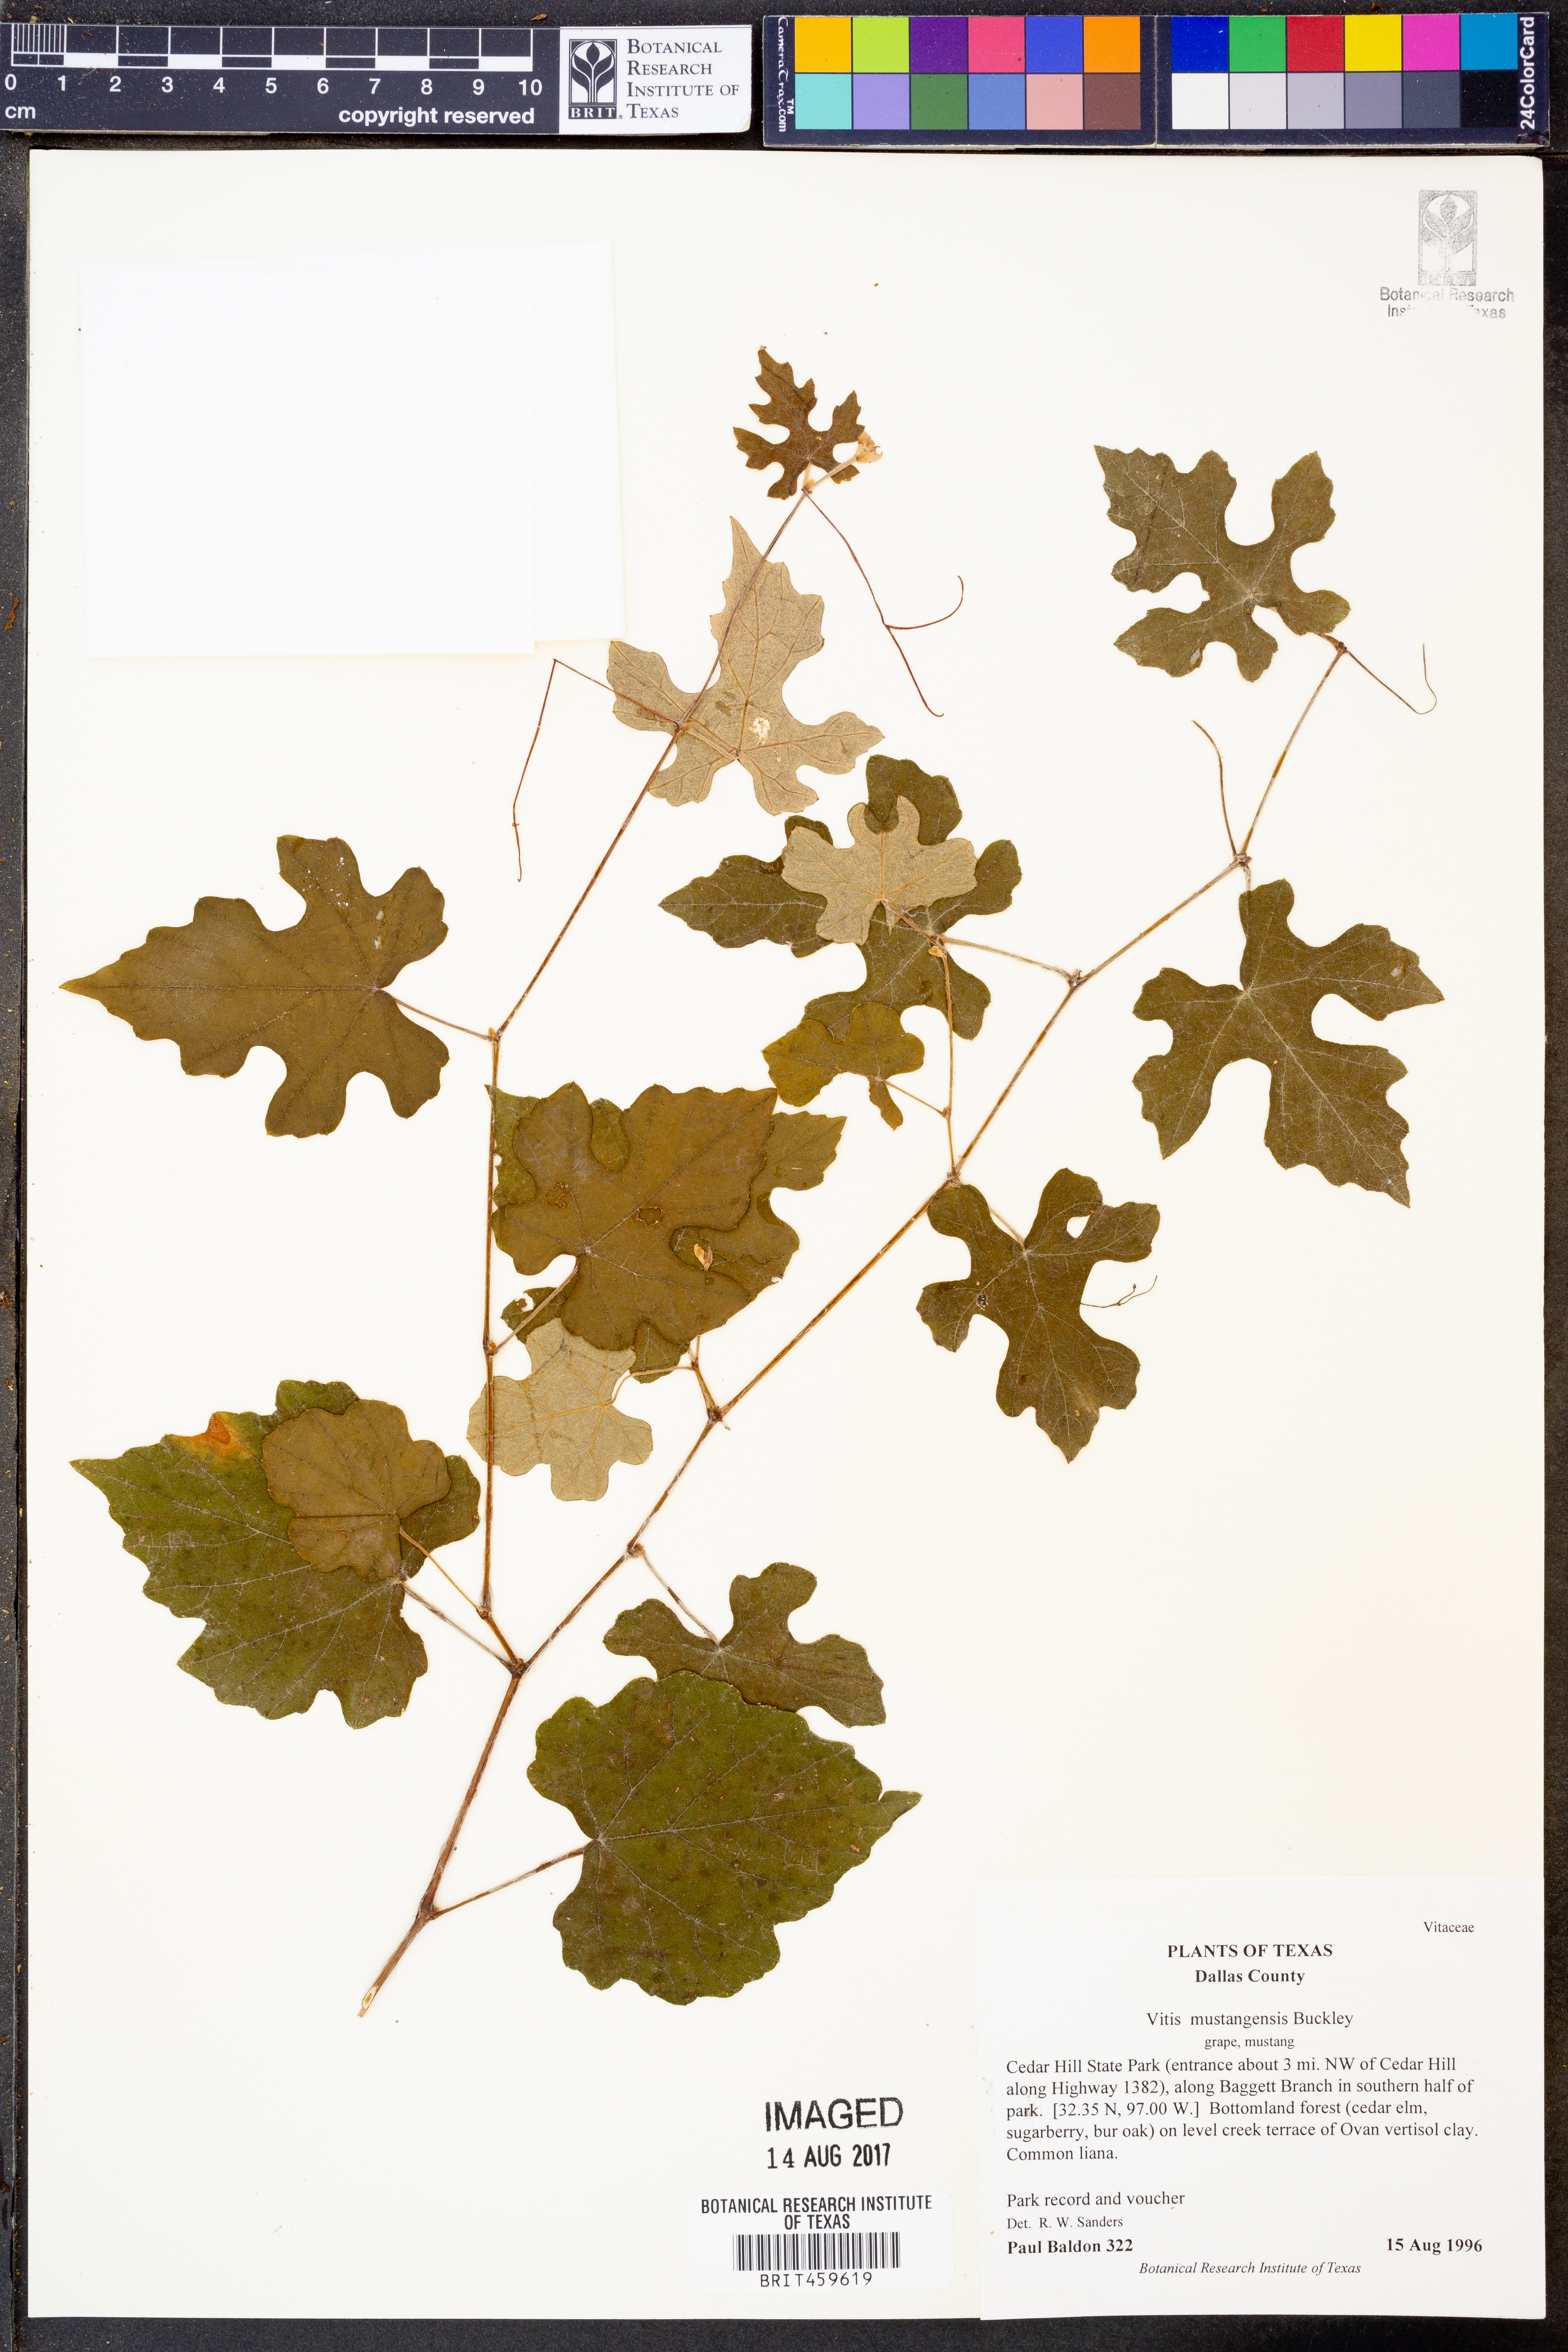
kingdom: Plantae
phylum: Tracheophyta
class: Magnoliopsida
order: Vitales
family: Vitaceae
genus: Vitis
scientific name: Vitis mustangensis
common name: Mustang grape
